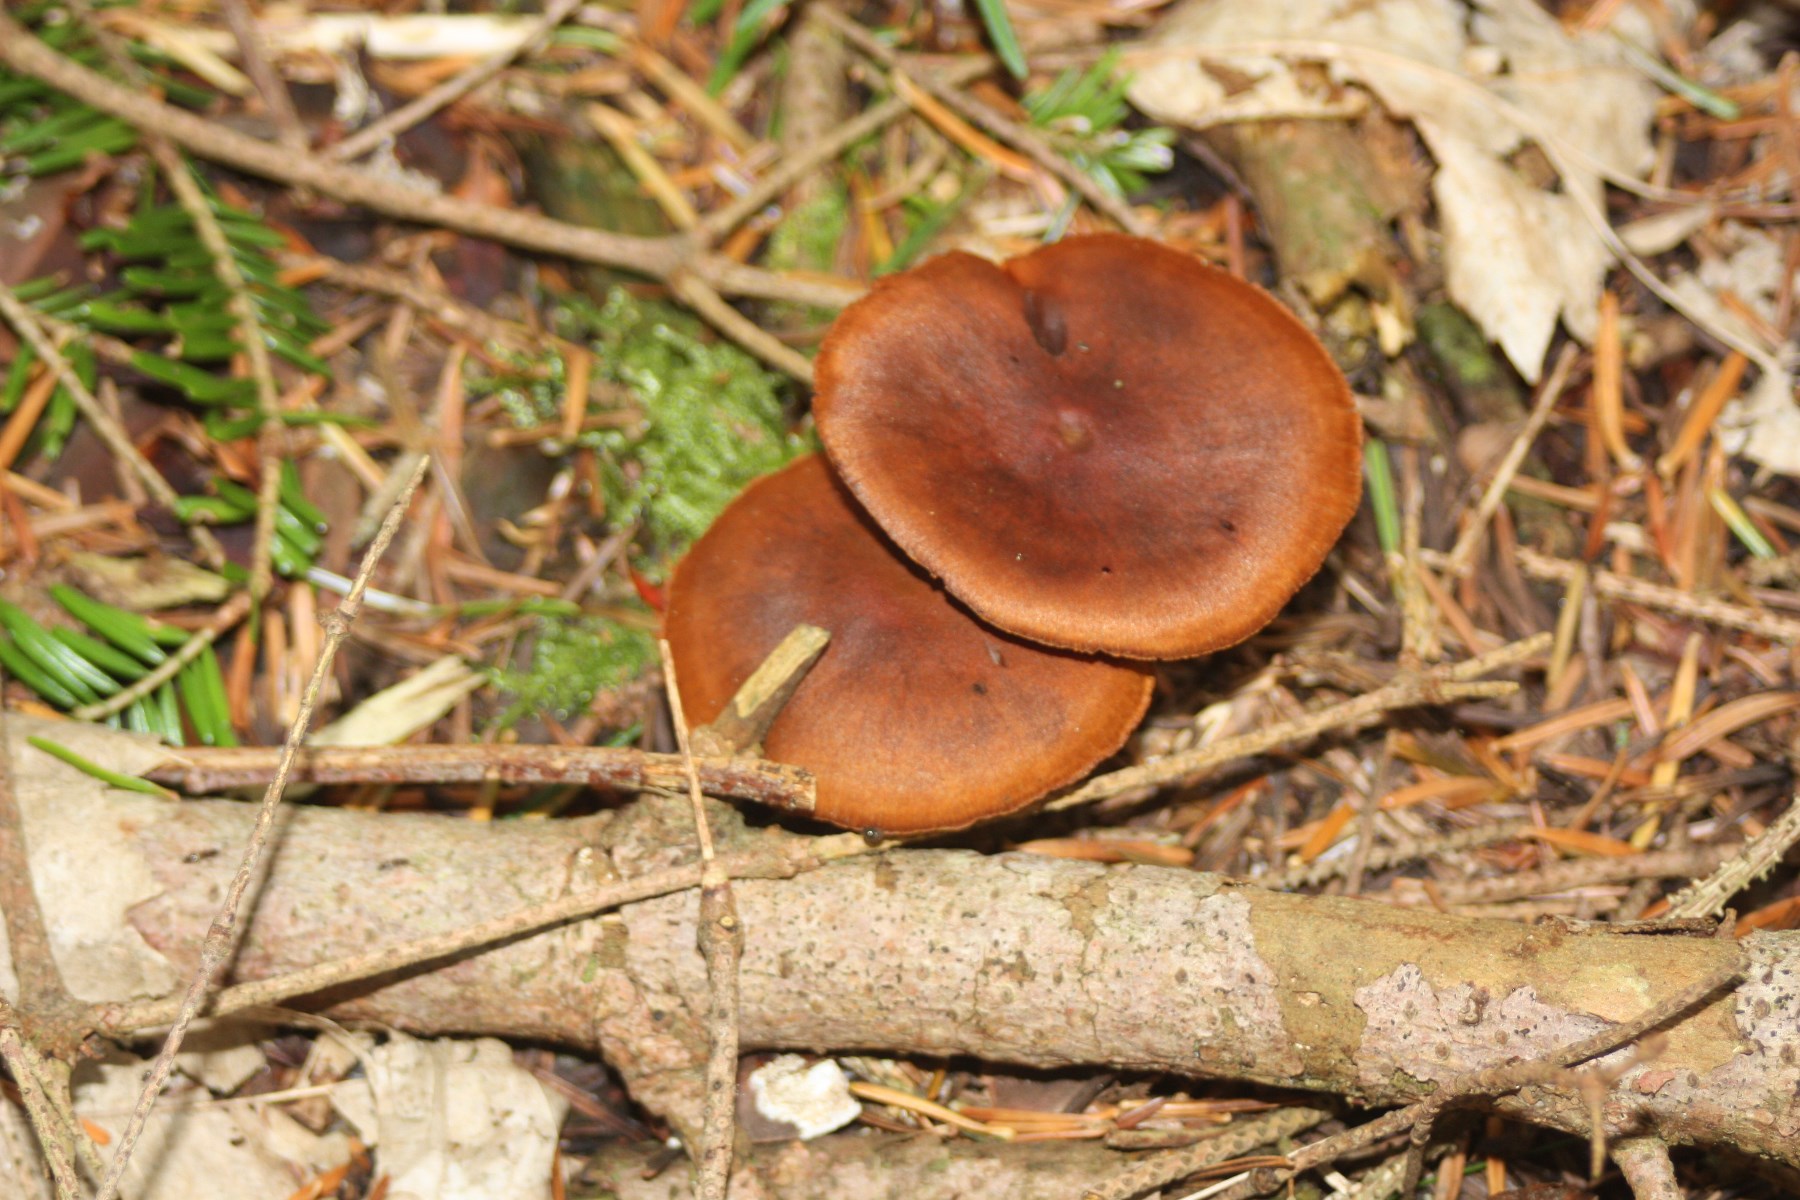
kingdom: Fungi
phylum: Basidiomycota
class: Agaricomycetes
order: Agaricales
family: Cortinariaceae
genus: Cortinarius
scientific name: Cortinarius cinnamomeus
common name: kanel-slørhat
